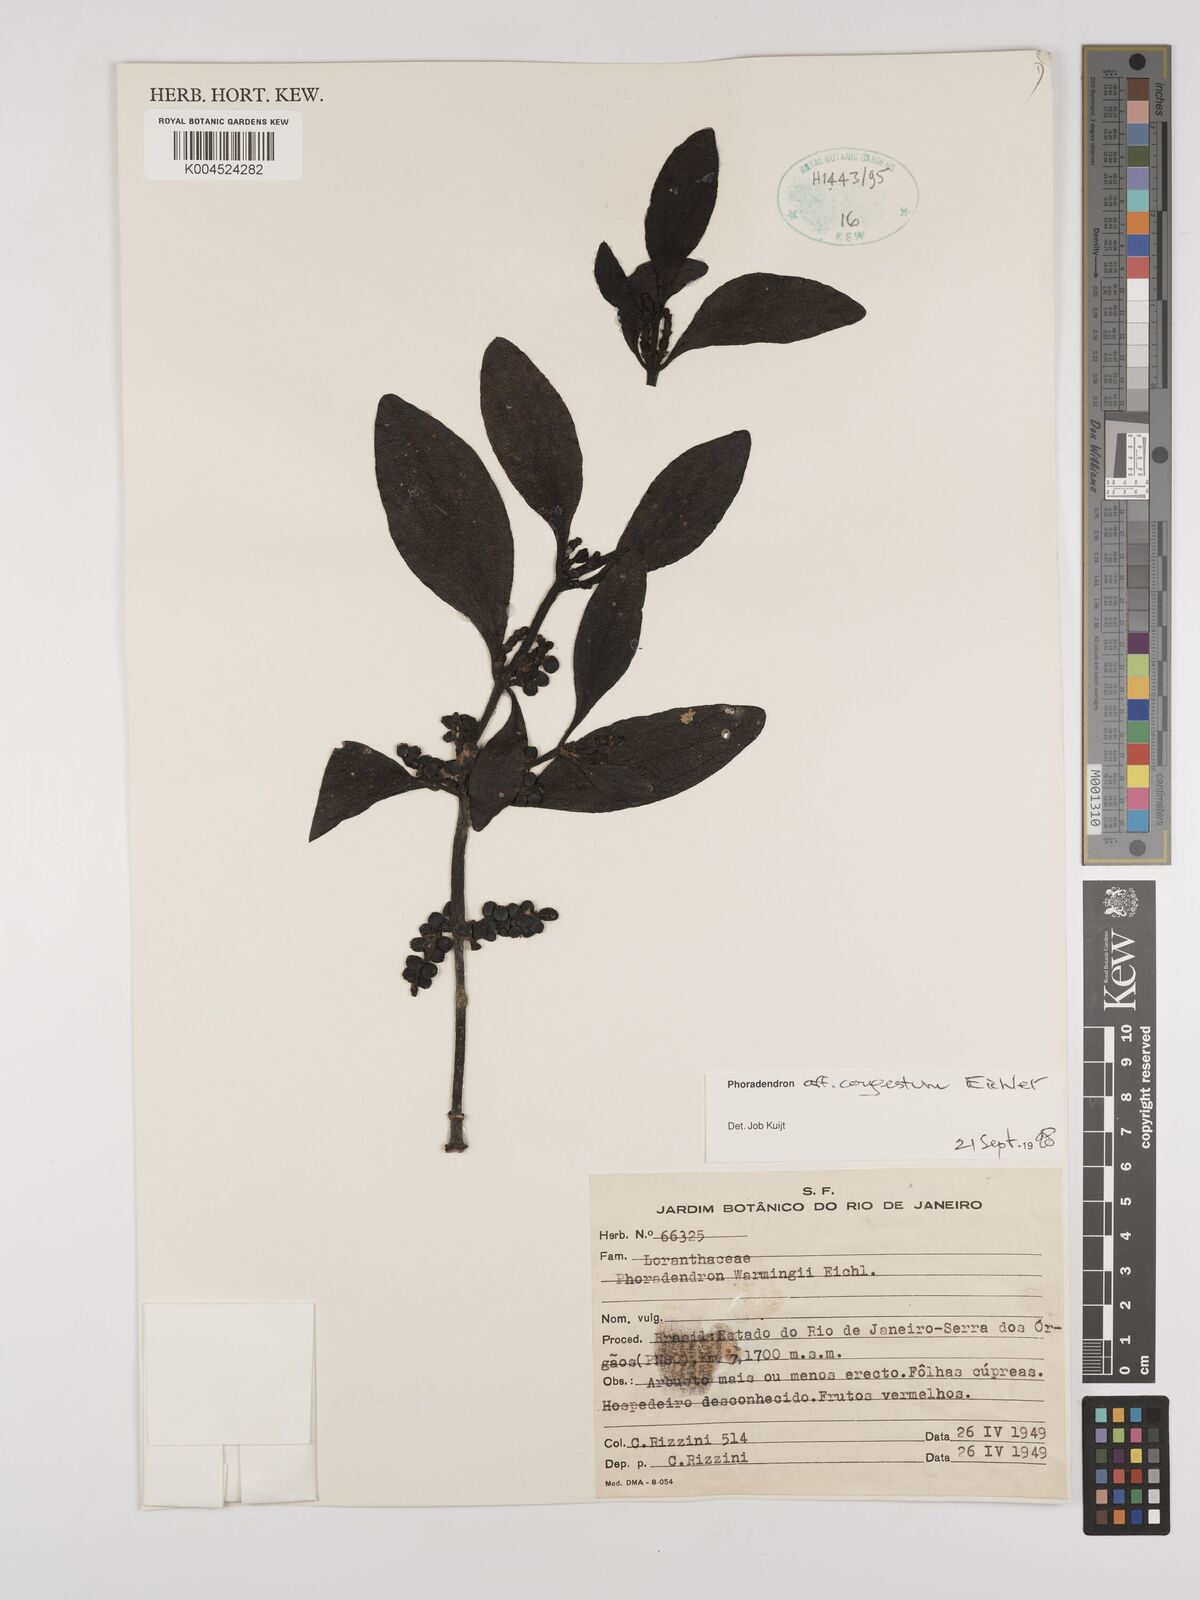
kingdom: Plantae
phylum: Tracheophyta
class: Magnoliopsida
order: Santalales
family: Viscaceae
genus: Phoradendron
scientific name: Phoradendron congestum
